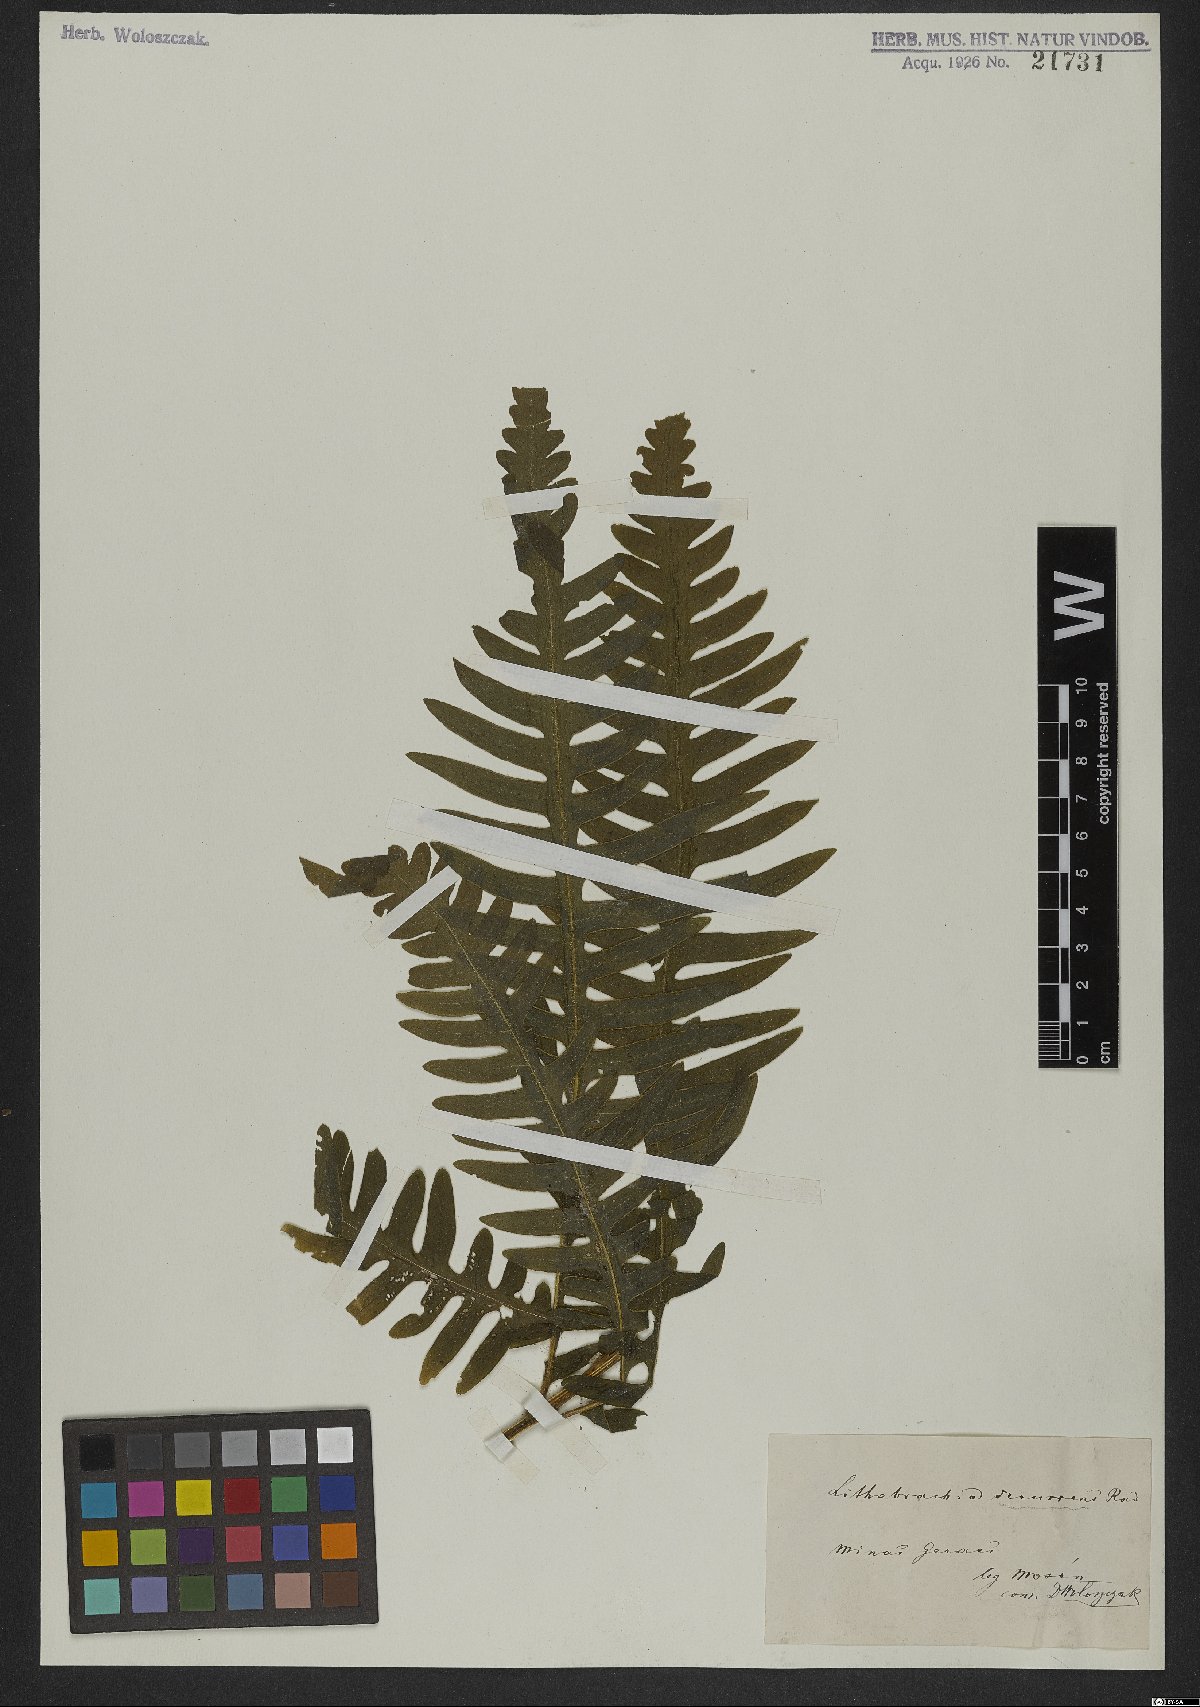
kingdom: Plantae
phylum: Tracheophyta
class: Polypodiopsida
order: Polypodiales
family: Pteridaceae
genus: Pteris
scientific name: Pteris decurrens
